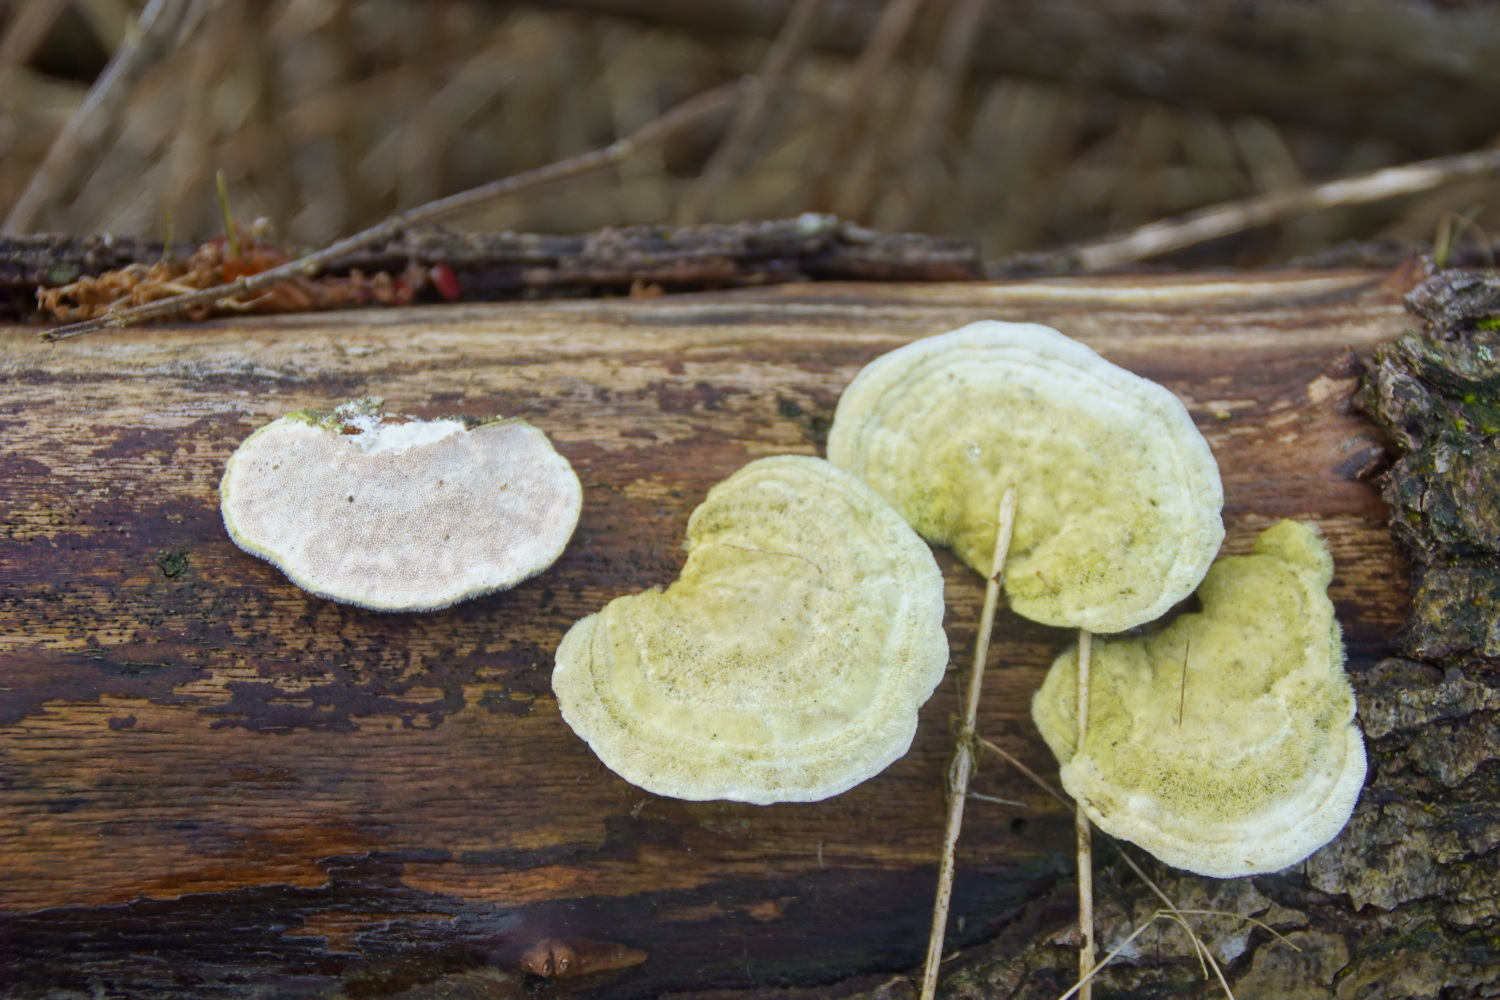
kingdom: Fungi
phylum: Basidiomycota
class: Agaricomycetes
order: Polyporales
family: Polyporaceae
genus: Trametes
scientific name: Trametes hirsuta
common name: håret læderporesvamp
